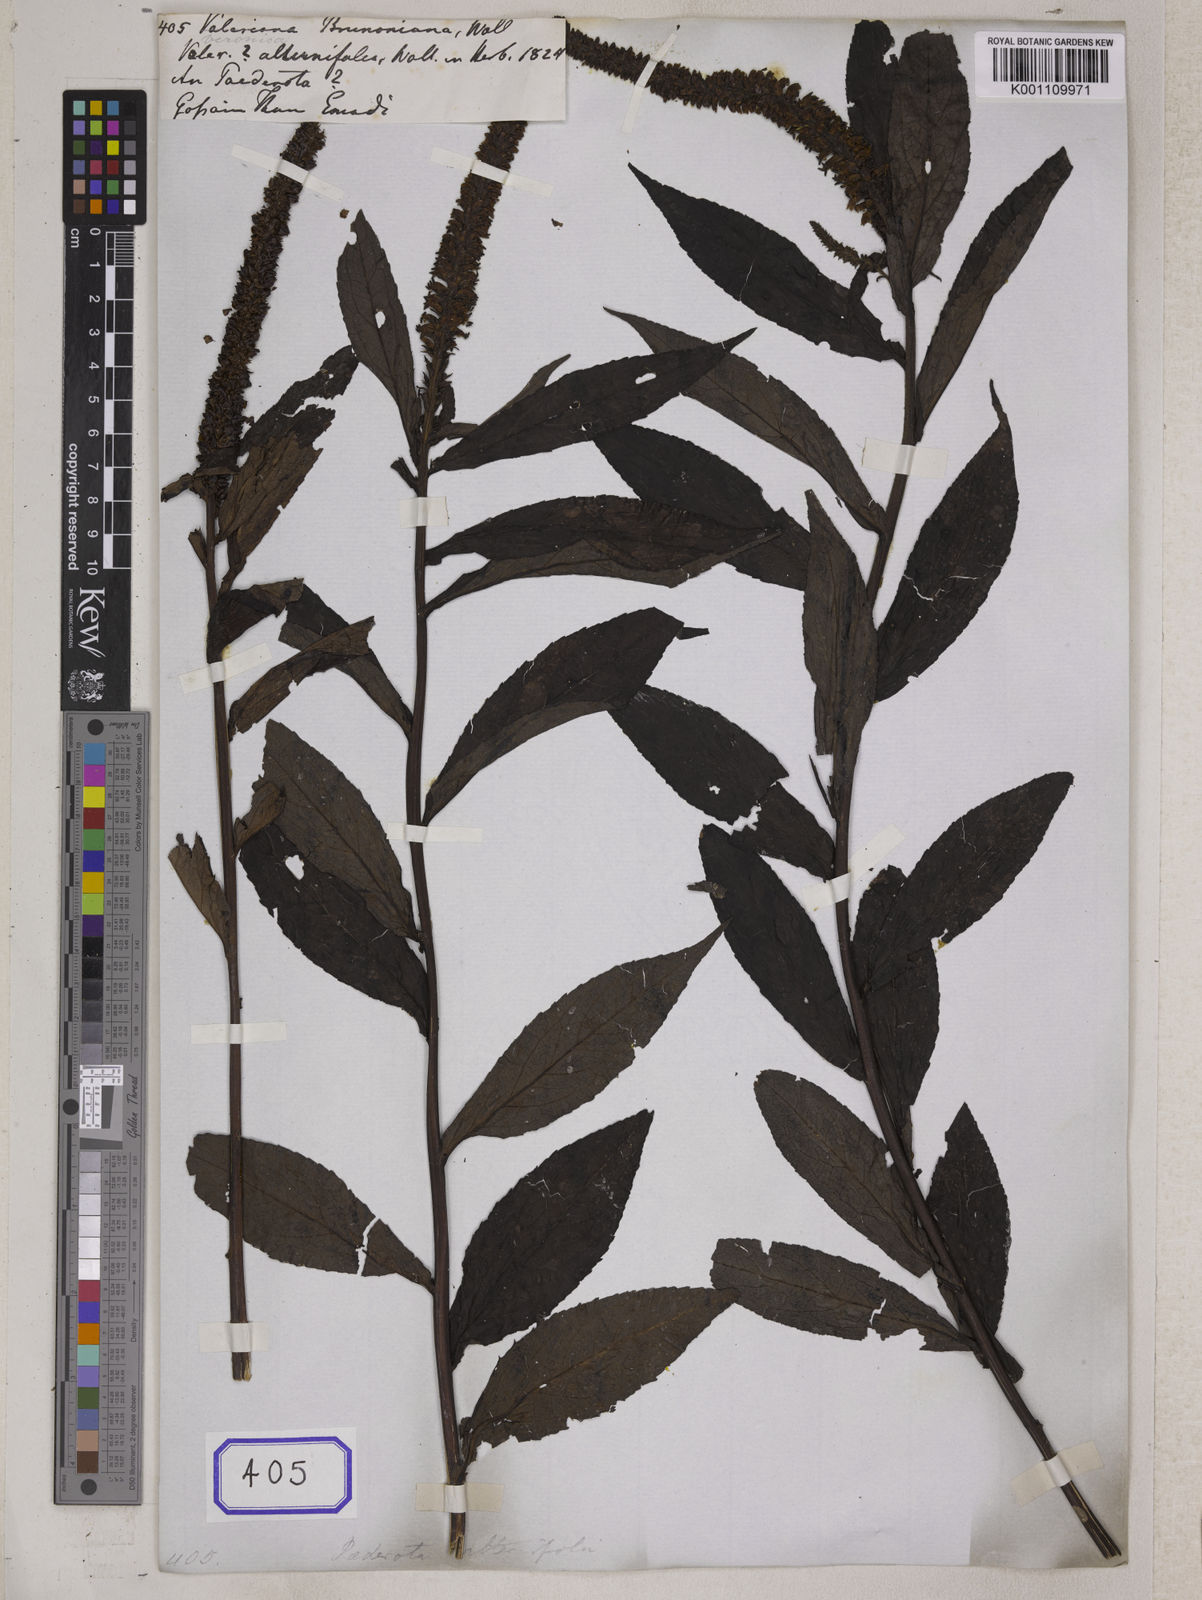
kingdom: Plantae
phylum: Tracheophyta
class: Magnoliopsida
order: Lamiales
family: Plantaginaceae
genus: Veronicastrum
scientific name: Veronicastrum brunonianum
